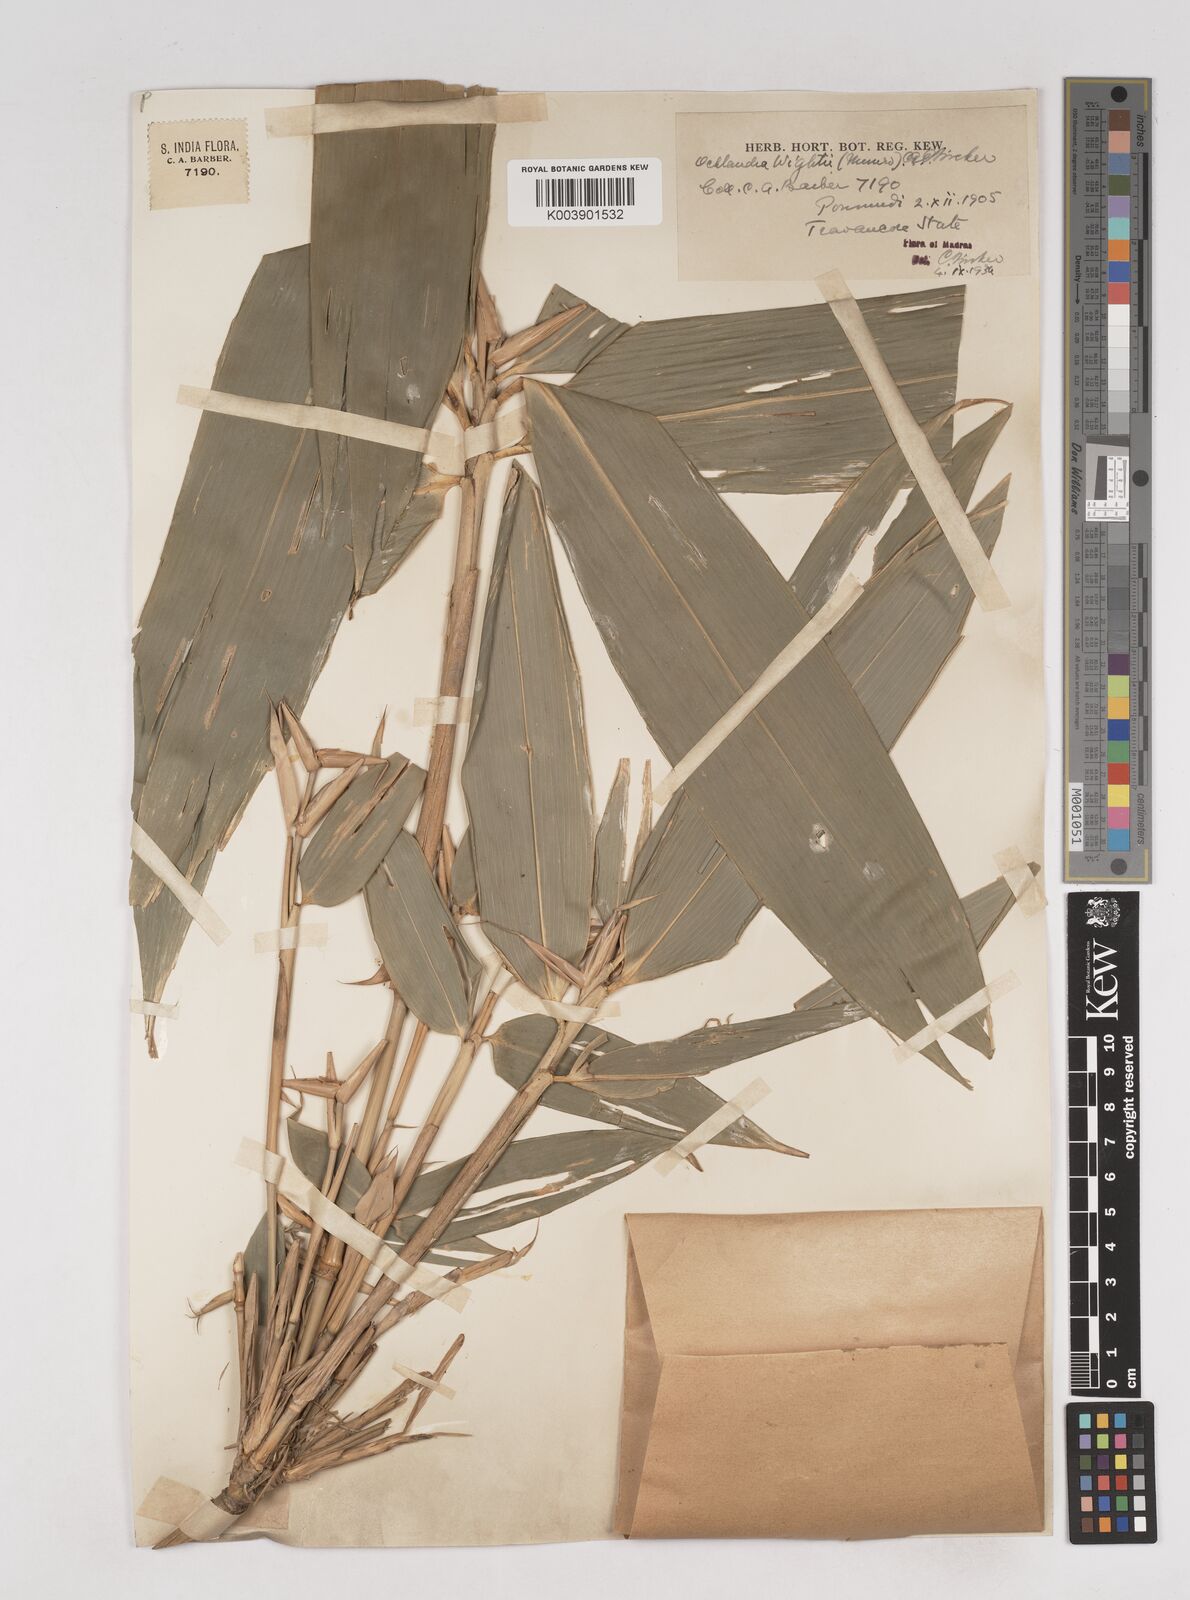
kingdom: Plantae
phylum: Tracheophyta
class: Liliopsida
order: Poales
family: Poaceae
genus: Ochlandra
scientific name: Ochlandra wightii
